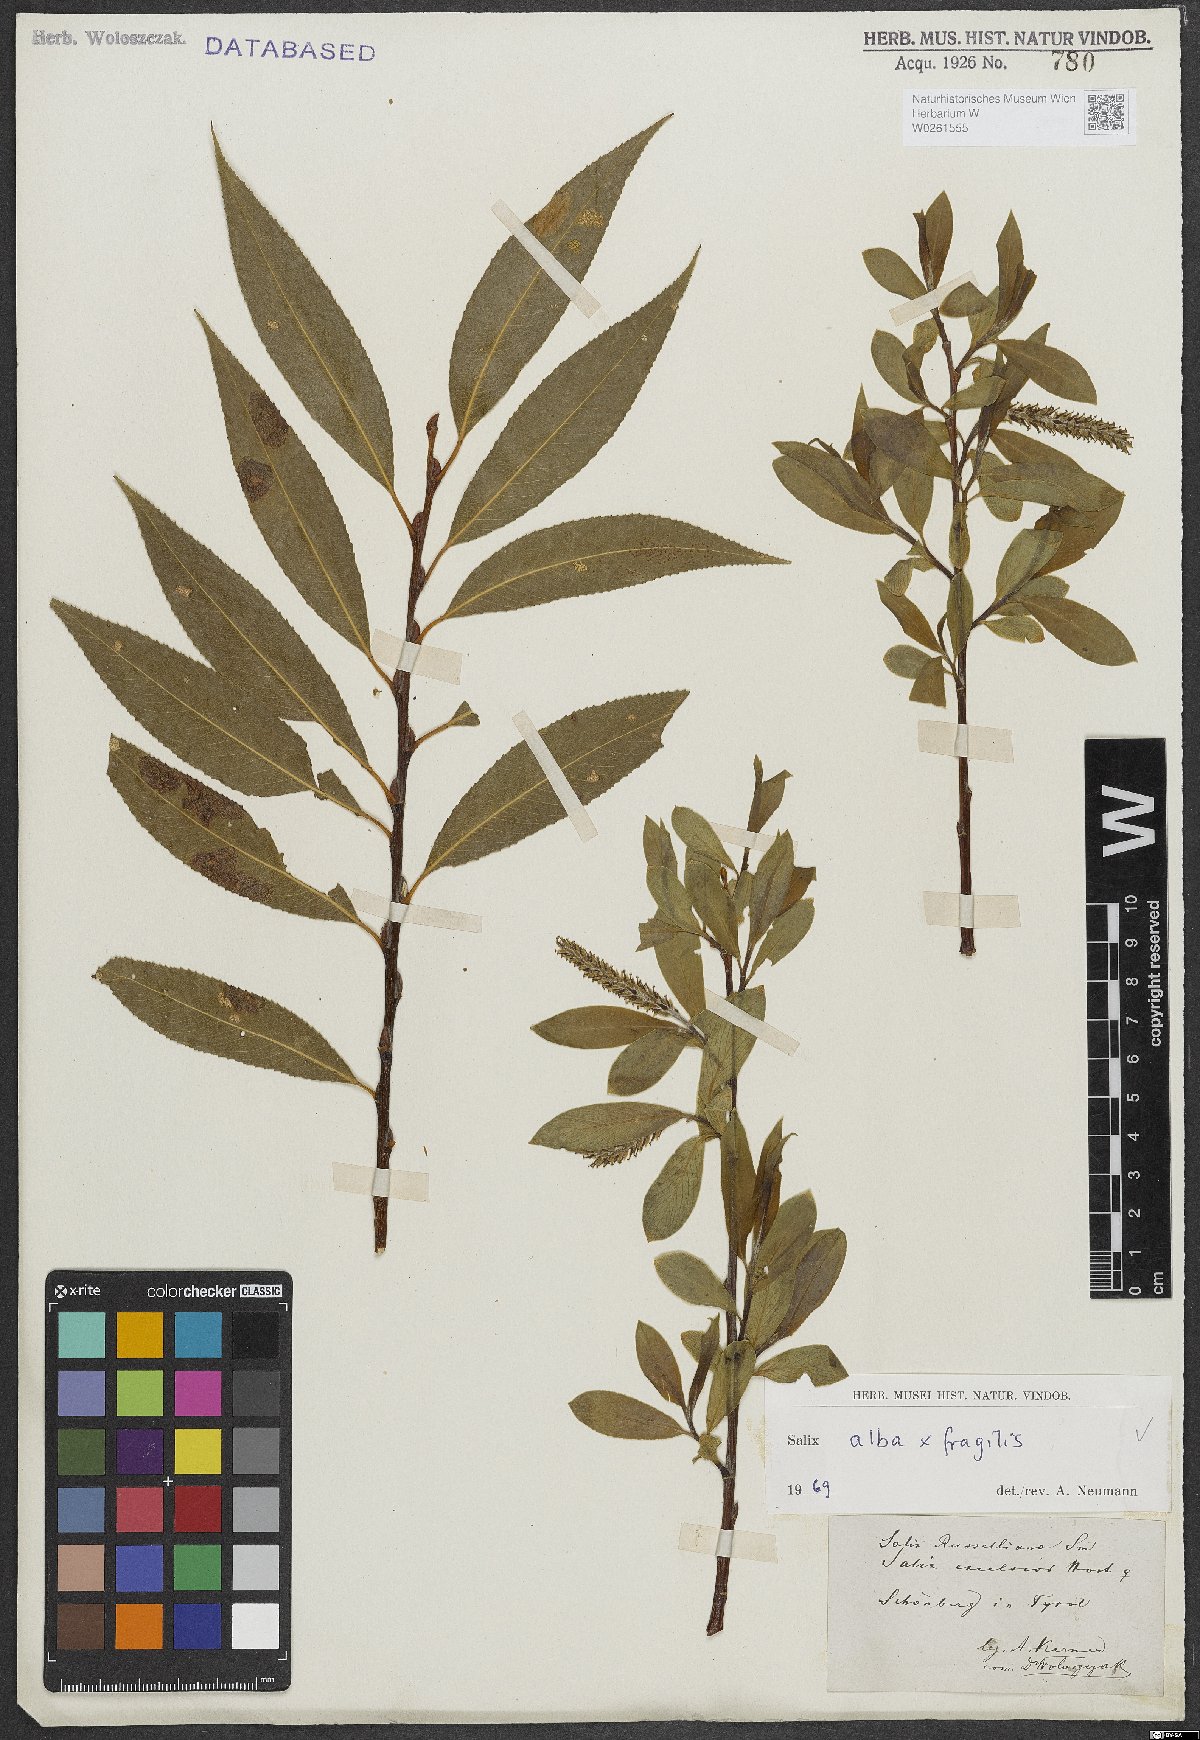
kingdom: Plantae
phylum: Tracheophyta
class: Magnoliopsida
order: Malpighiales
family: Salicaceae
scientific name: Salicaceae
